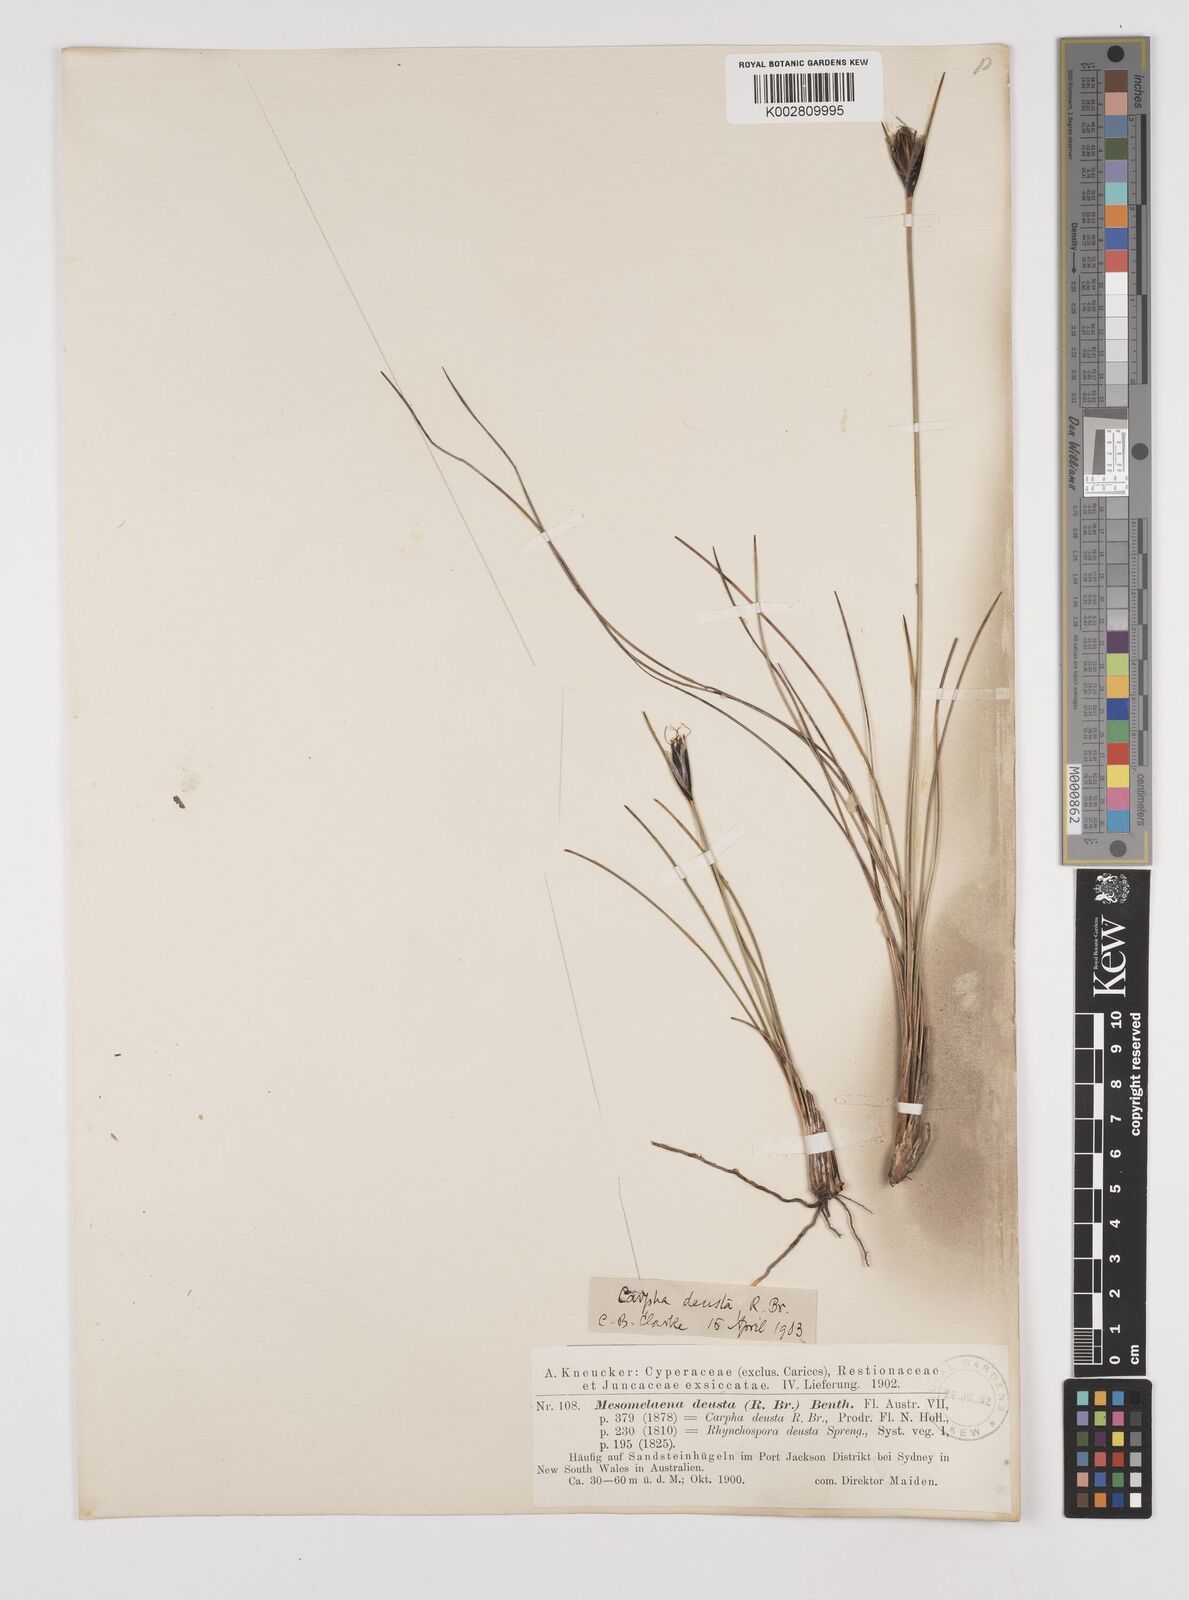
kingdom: Plantae
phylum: Tracheophyta
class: Liliopsida
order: Poales
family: Cyperaceae
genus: Ptilothrix
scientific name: Ptilothrix deusta
